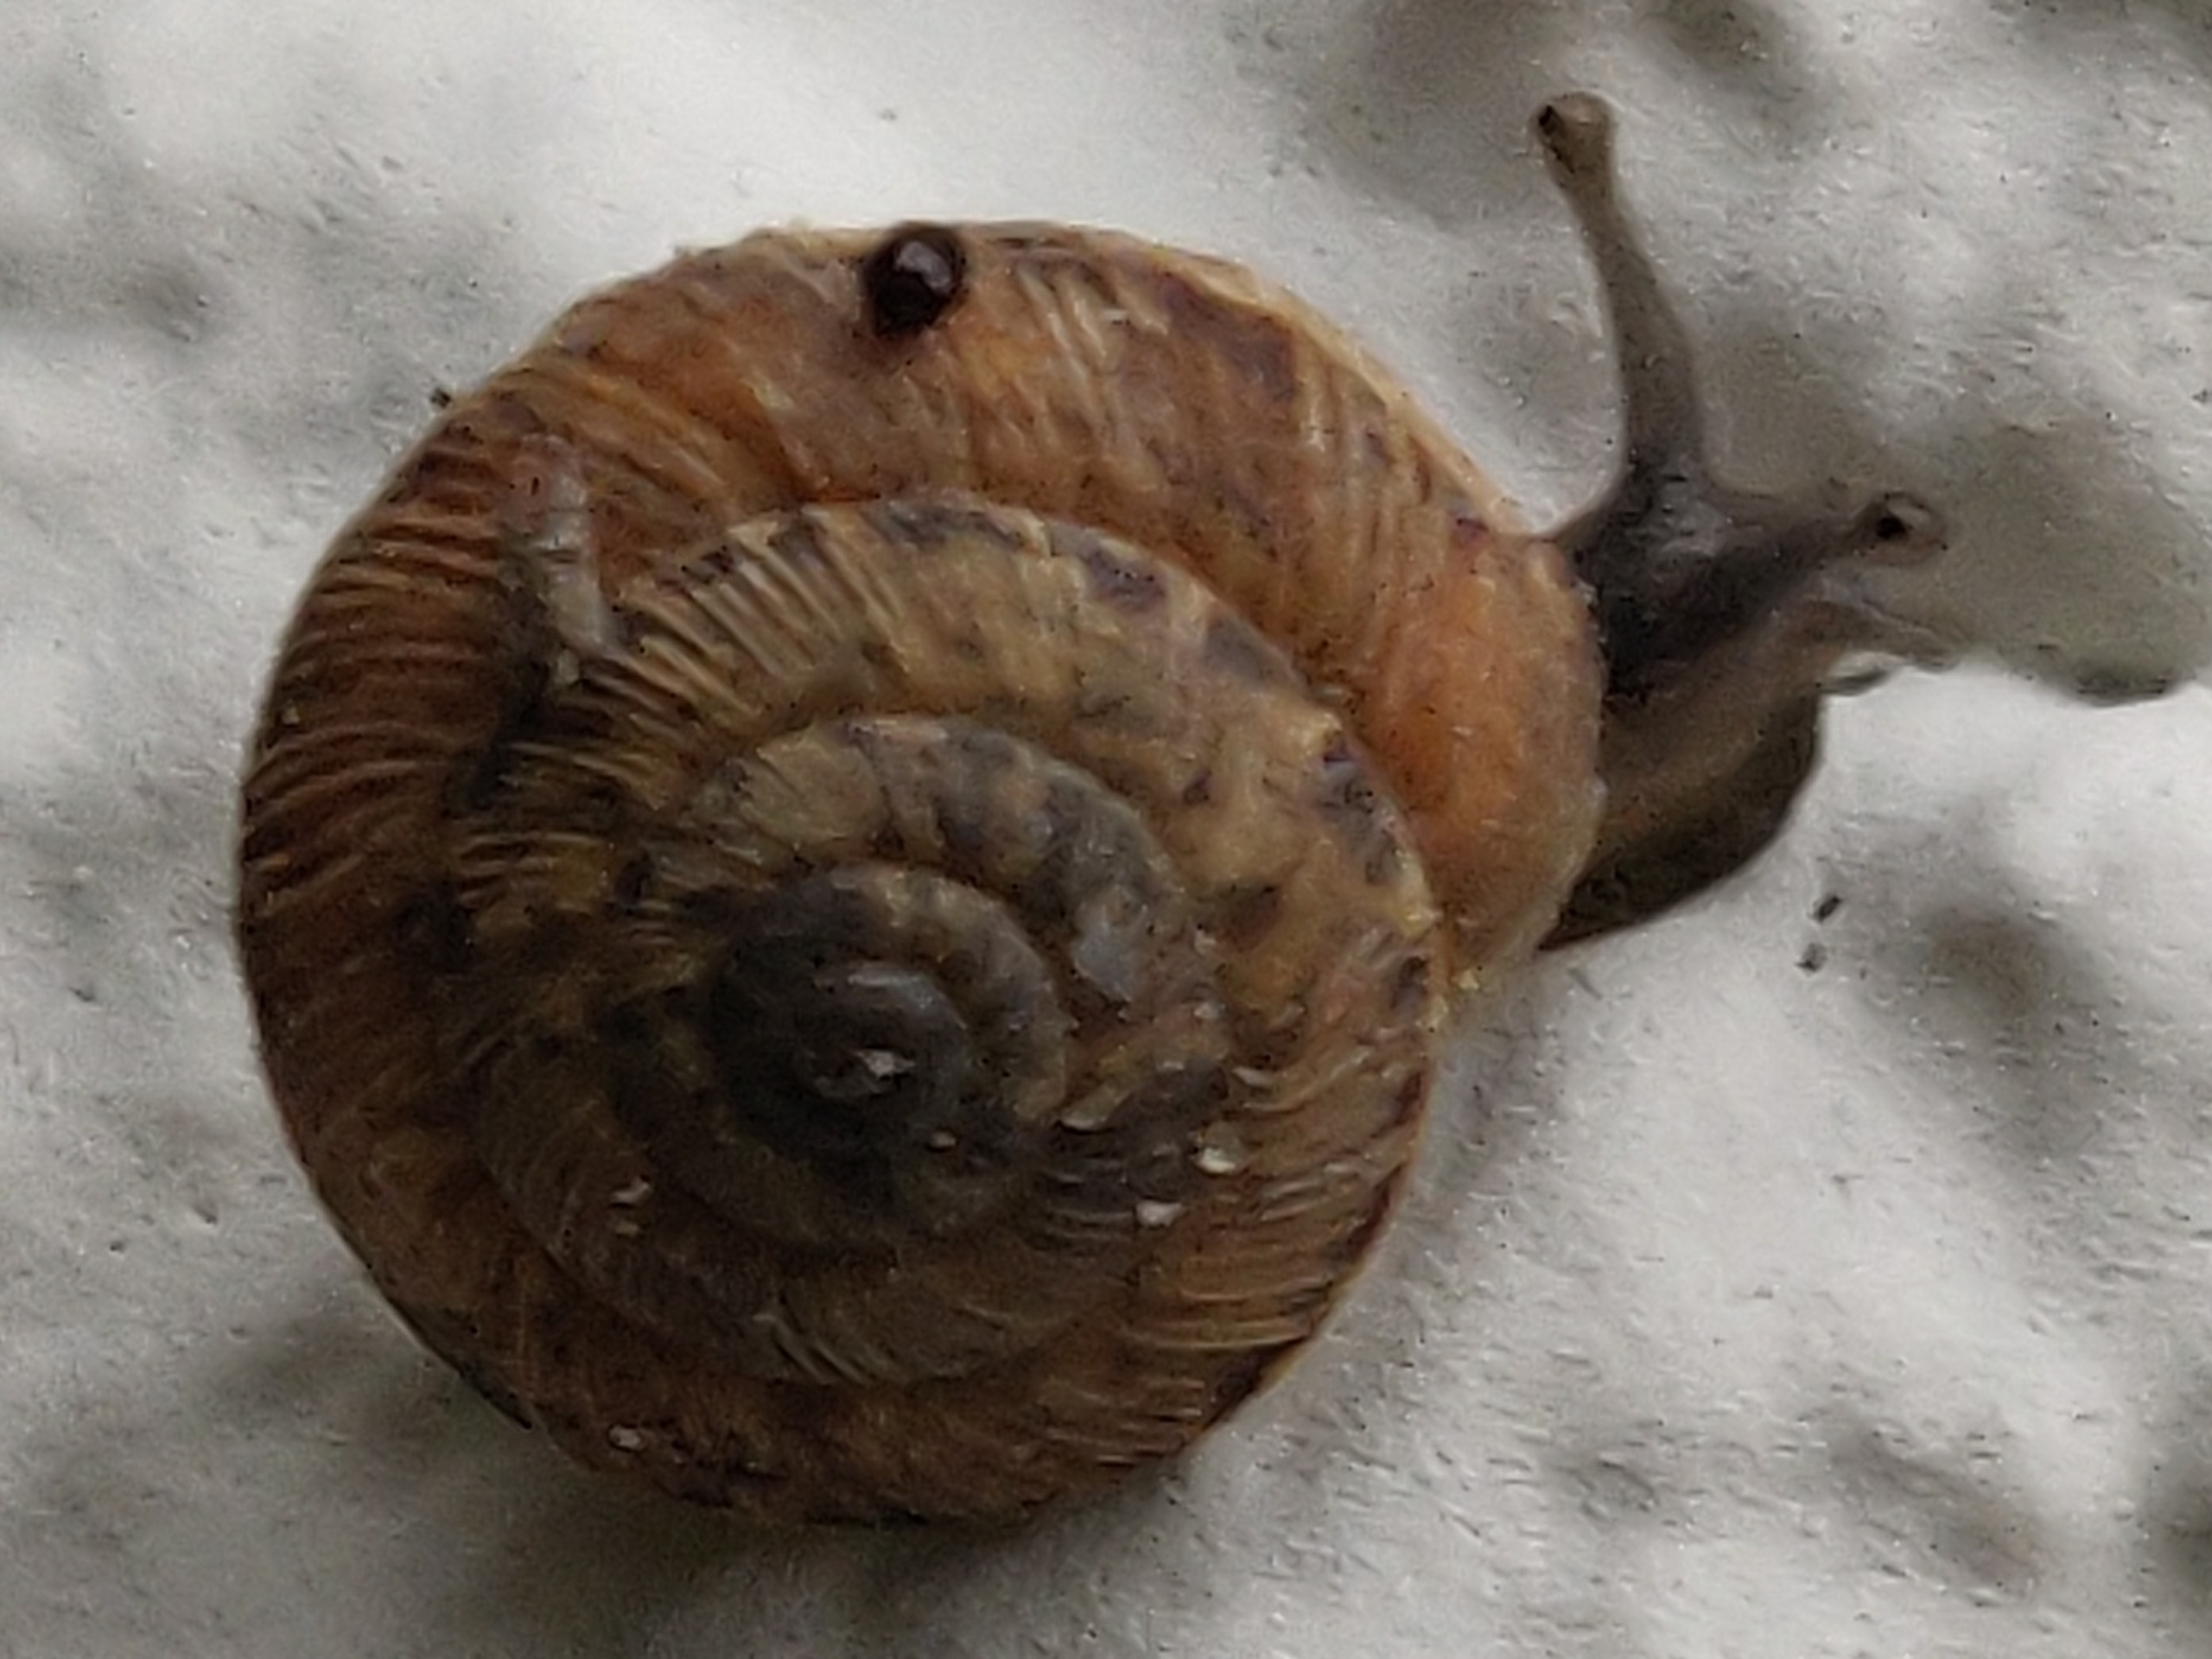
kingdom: Animalia
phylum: Mollusca
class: Gastropoda
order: Stylommatophora
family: Discidae
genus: Discus
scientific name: Discus rotundatus
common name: Knapsnegl
